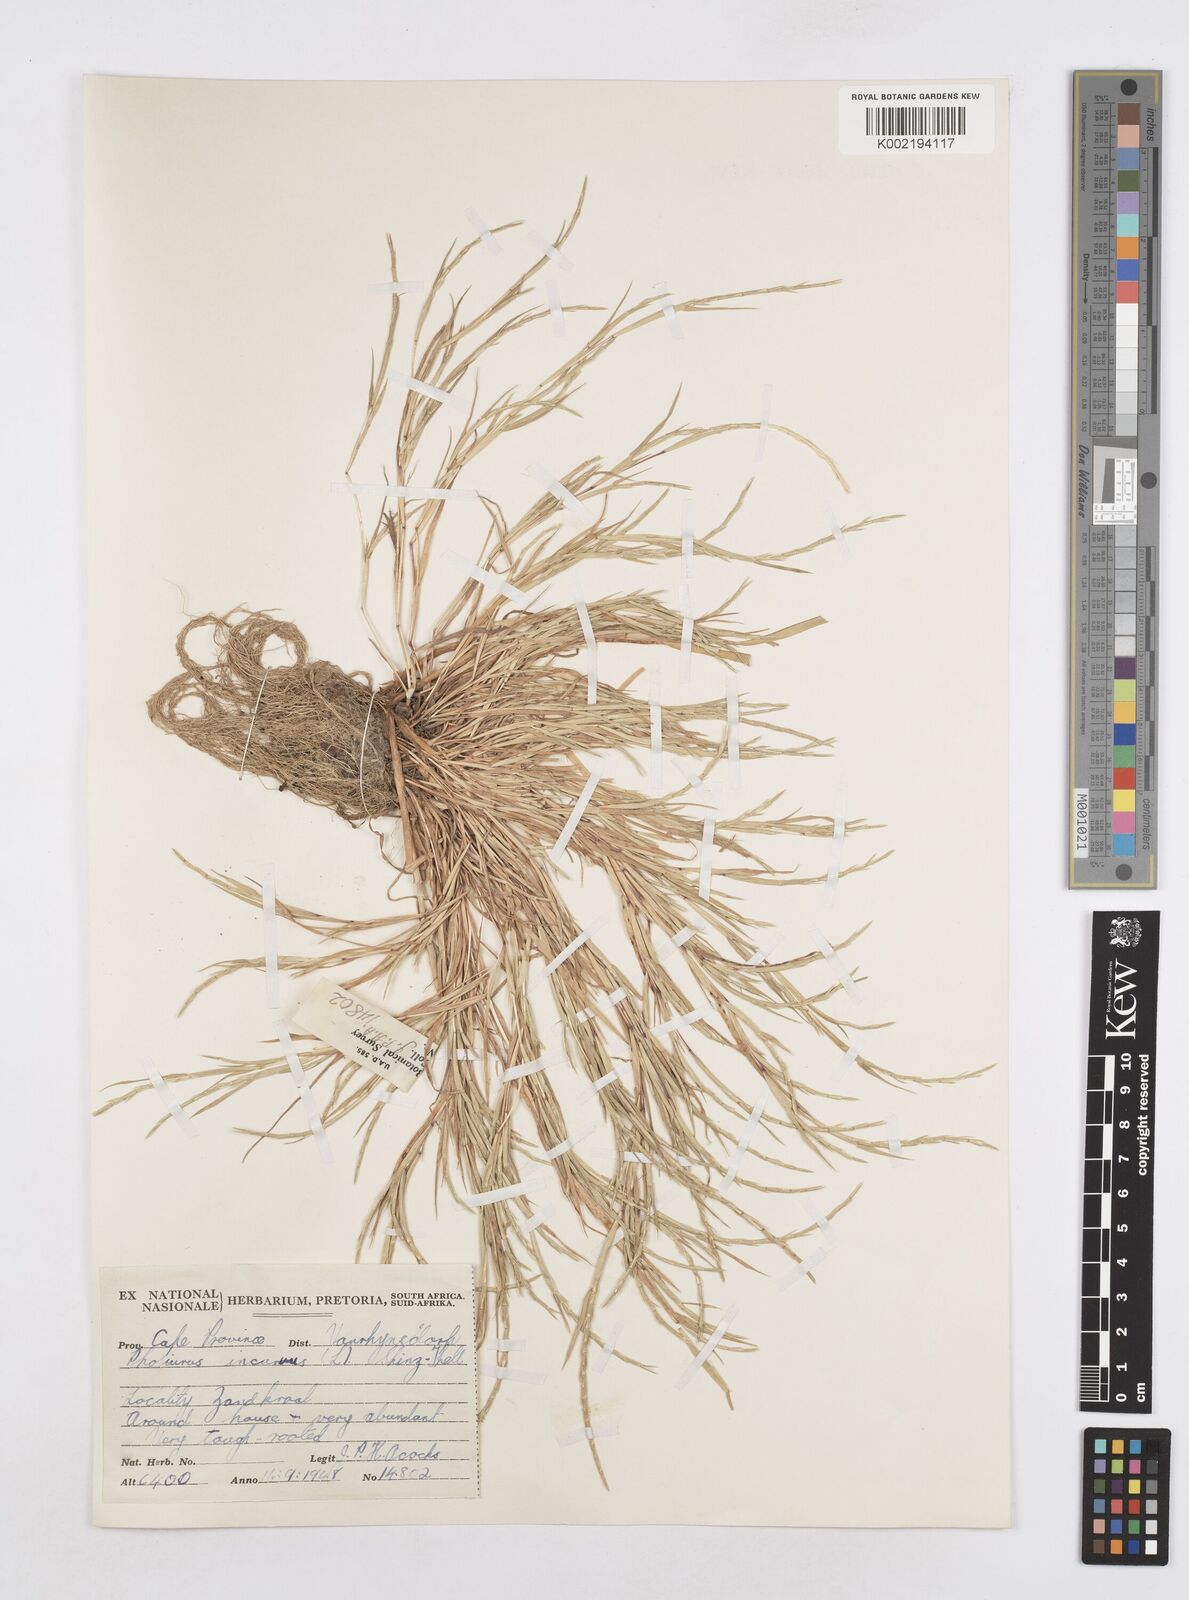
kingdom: Plantae
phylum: Tracheophyta
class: Liliopsida
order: Poales
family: Poaceae
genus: Parapholis
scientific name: Parapholis incurva
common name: Curved sicklegrass
